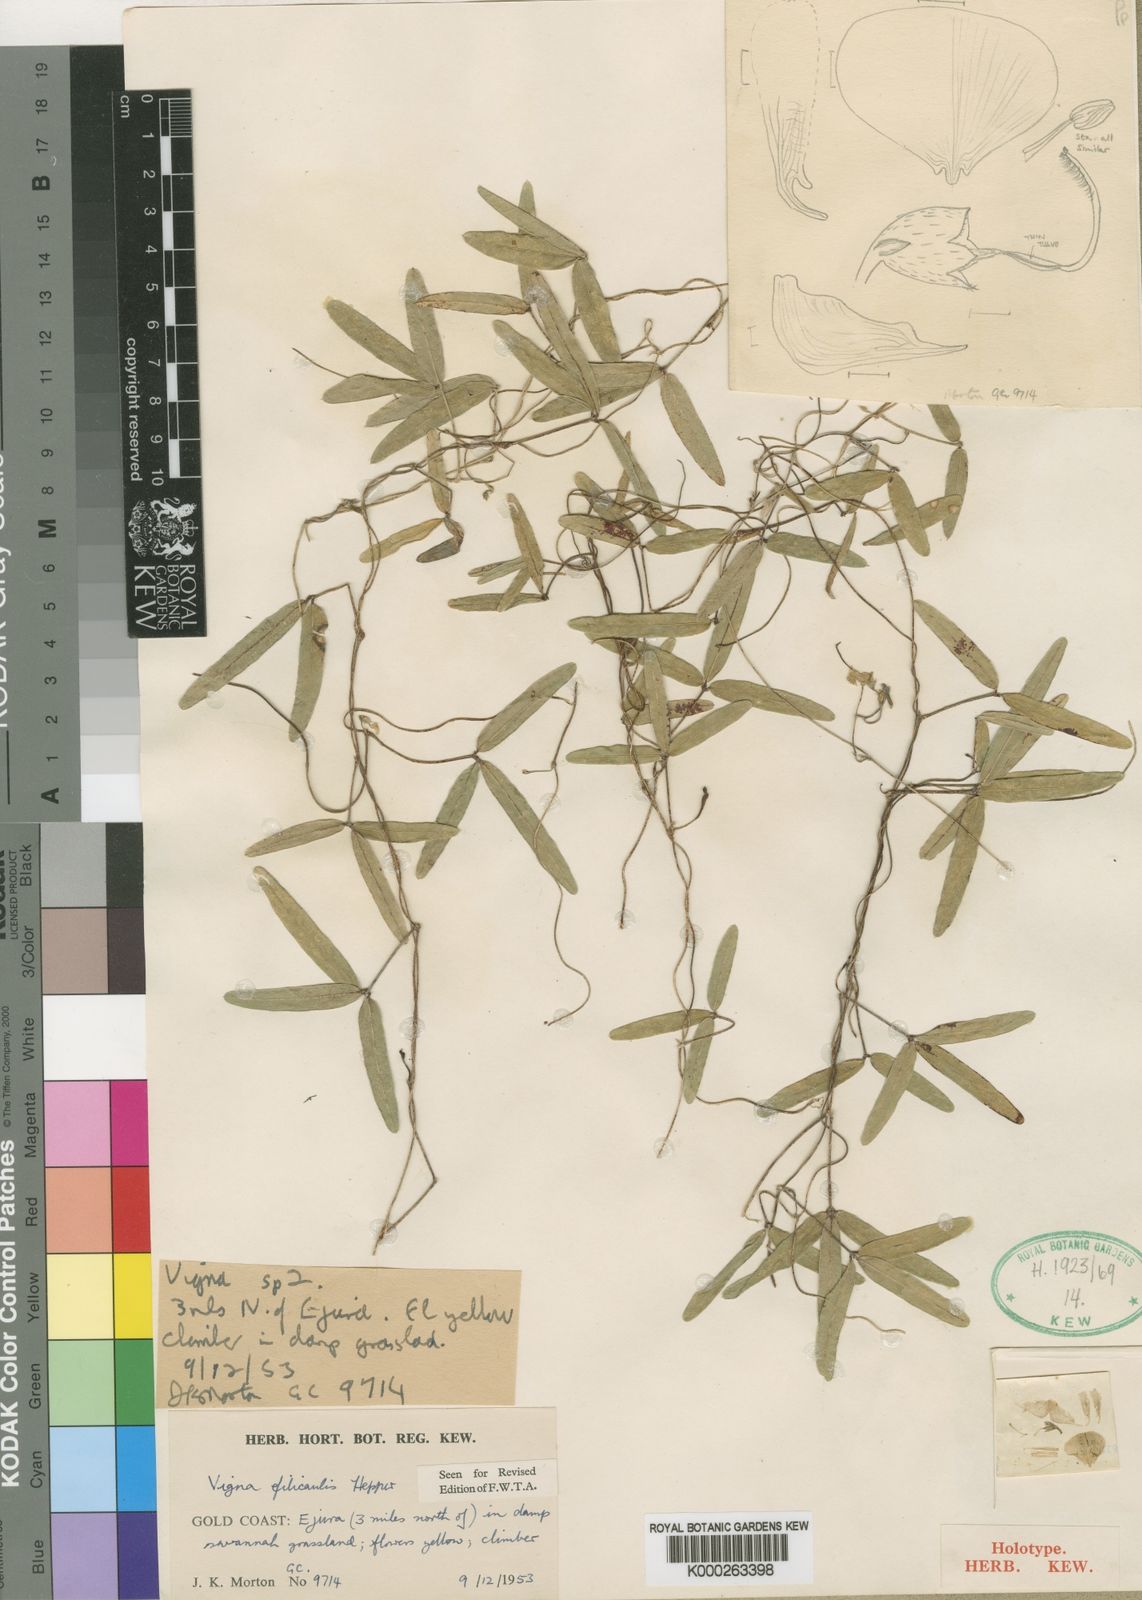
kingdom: Plantae
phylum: Tracheophyta
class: Magnoliopsida
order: Fabales
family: Fabaceae
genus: Vigna
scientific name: Vigna filicaulis
